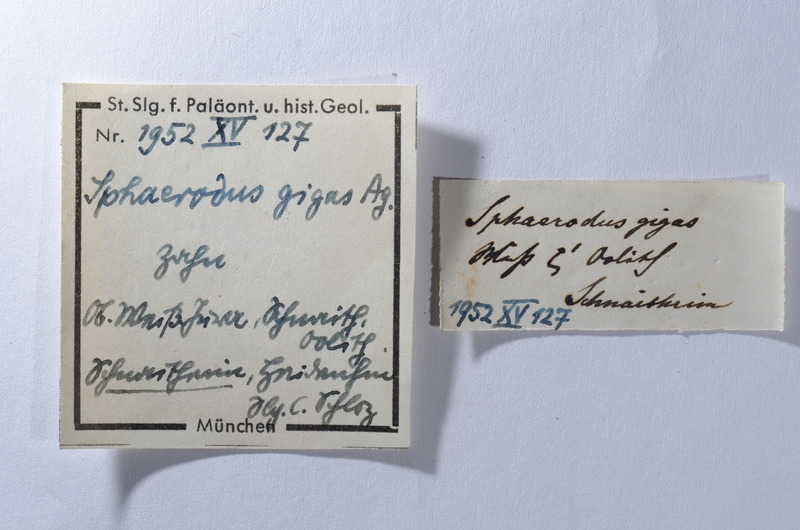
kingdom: Animalia
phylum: Chordata
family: Pycnodontidae
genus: Sphaerodus
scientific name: Sphaerodus gigas
